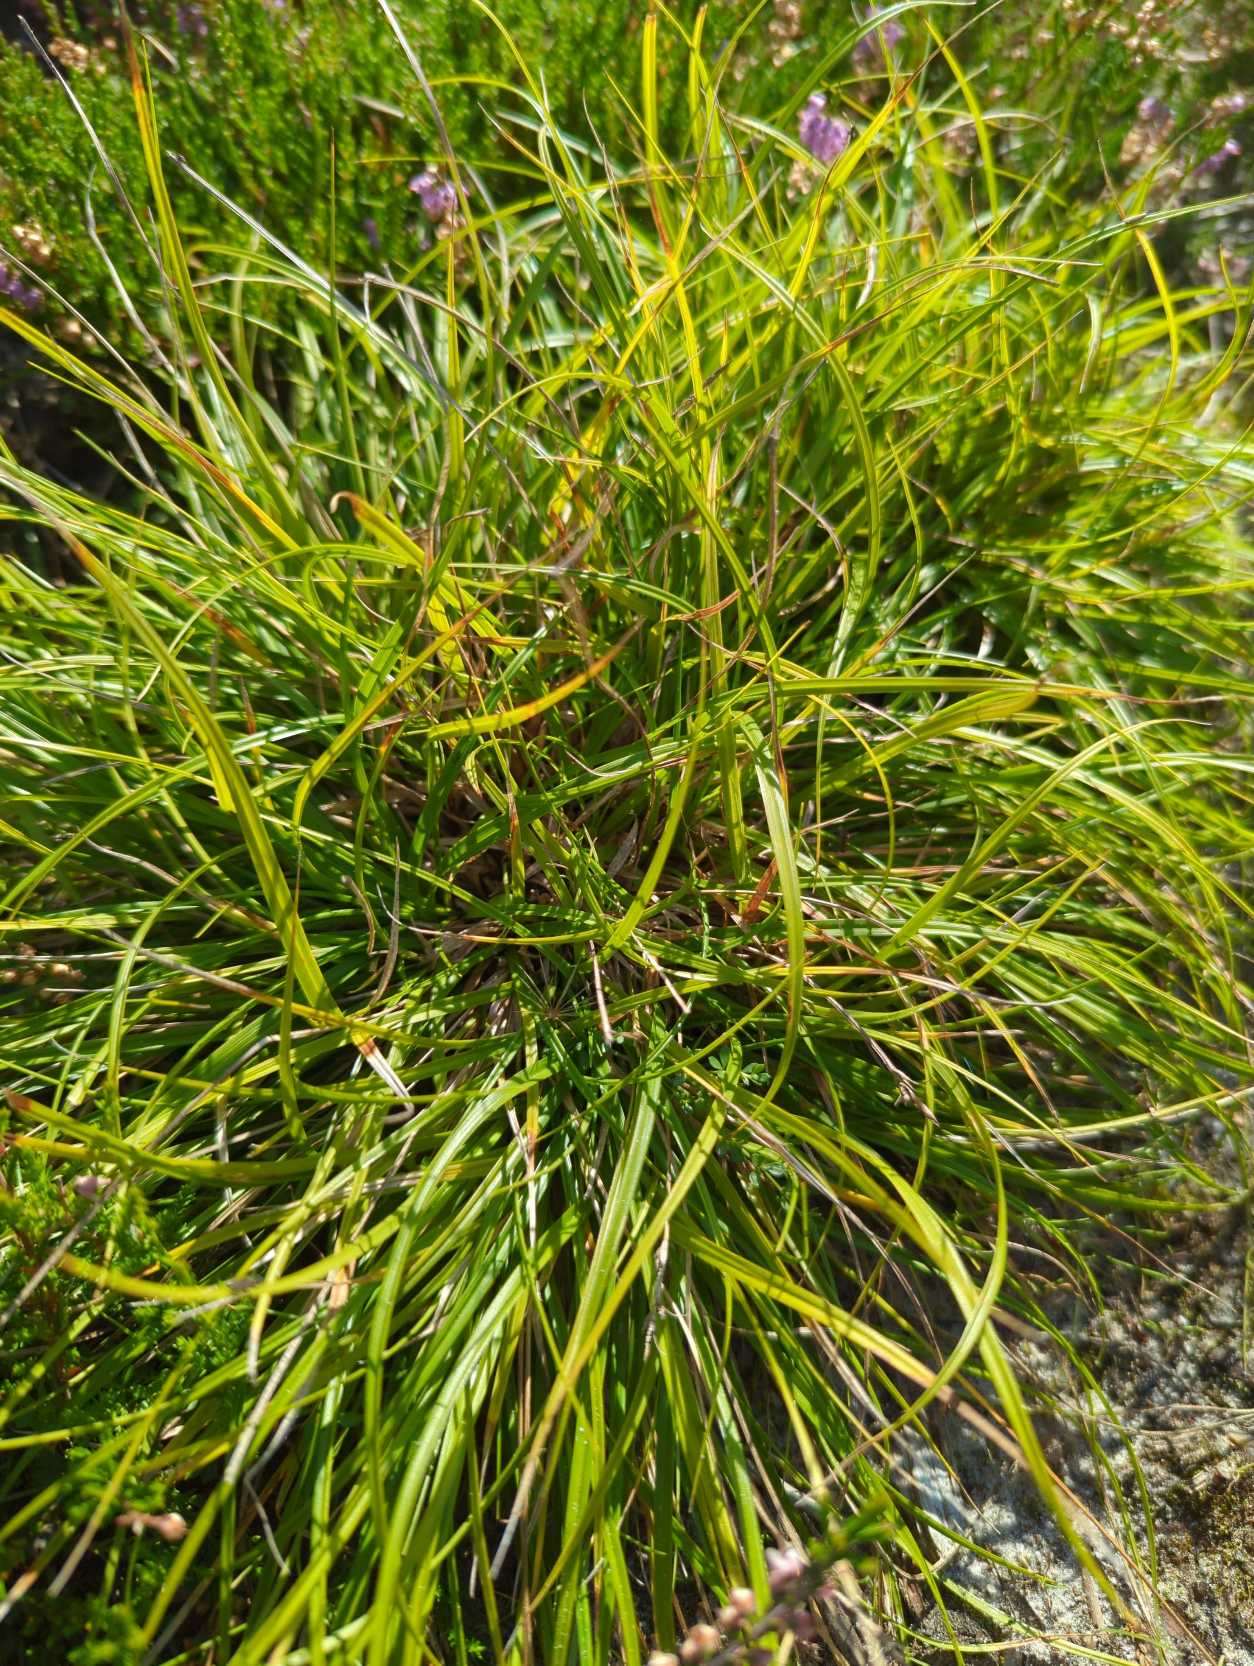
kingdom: Plantae
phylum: Tracheophyta
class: Liliopsida
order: Poales
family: Cyperaceae
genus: Carex
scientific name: Carex pilulifera
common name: Pille-star
